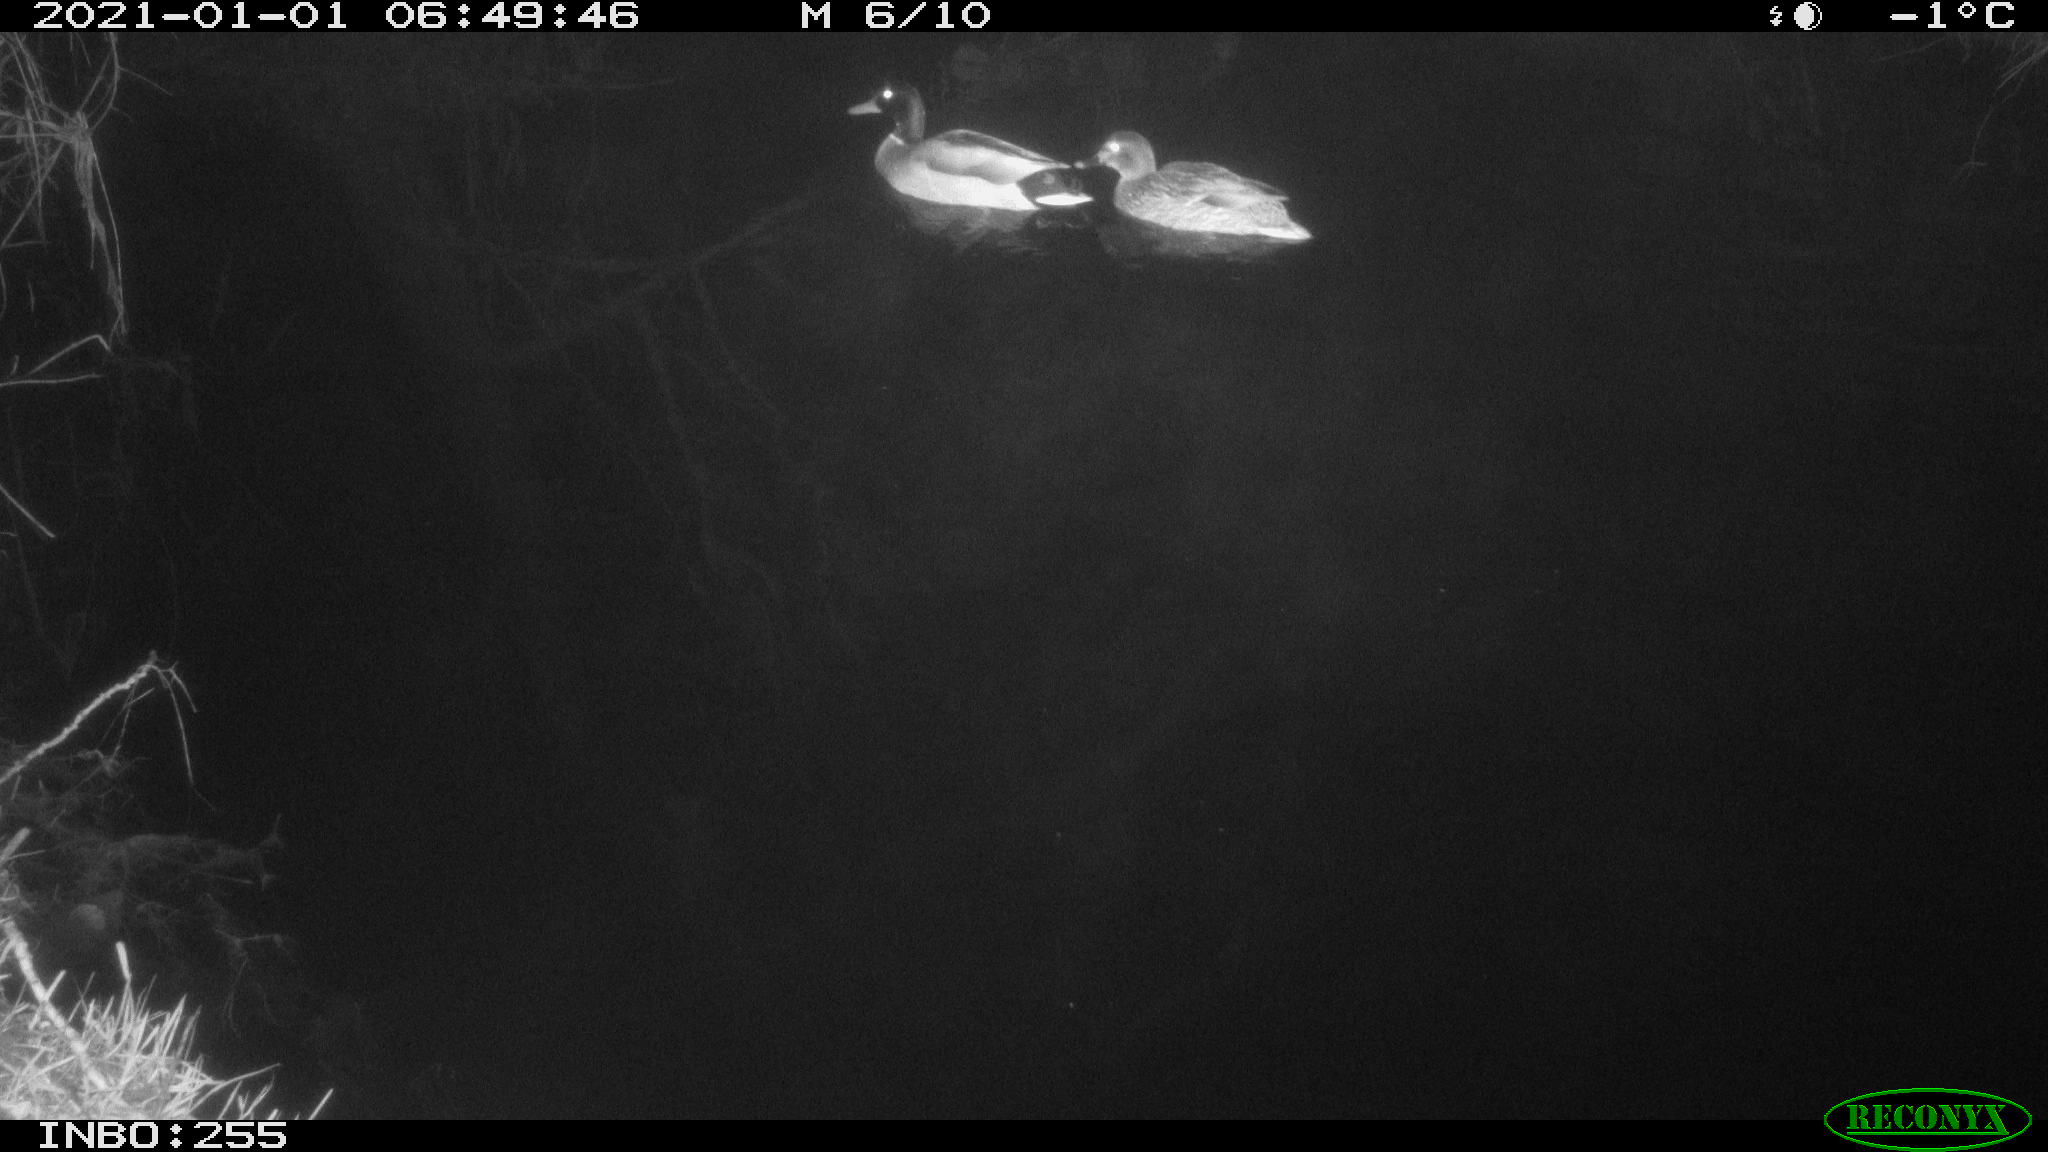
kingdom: Animalia
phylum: Chordata
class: Aves
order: Anseriformes
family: Anatidae
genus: Anas
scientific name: Anas platyrhynchos
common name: Mallard
